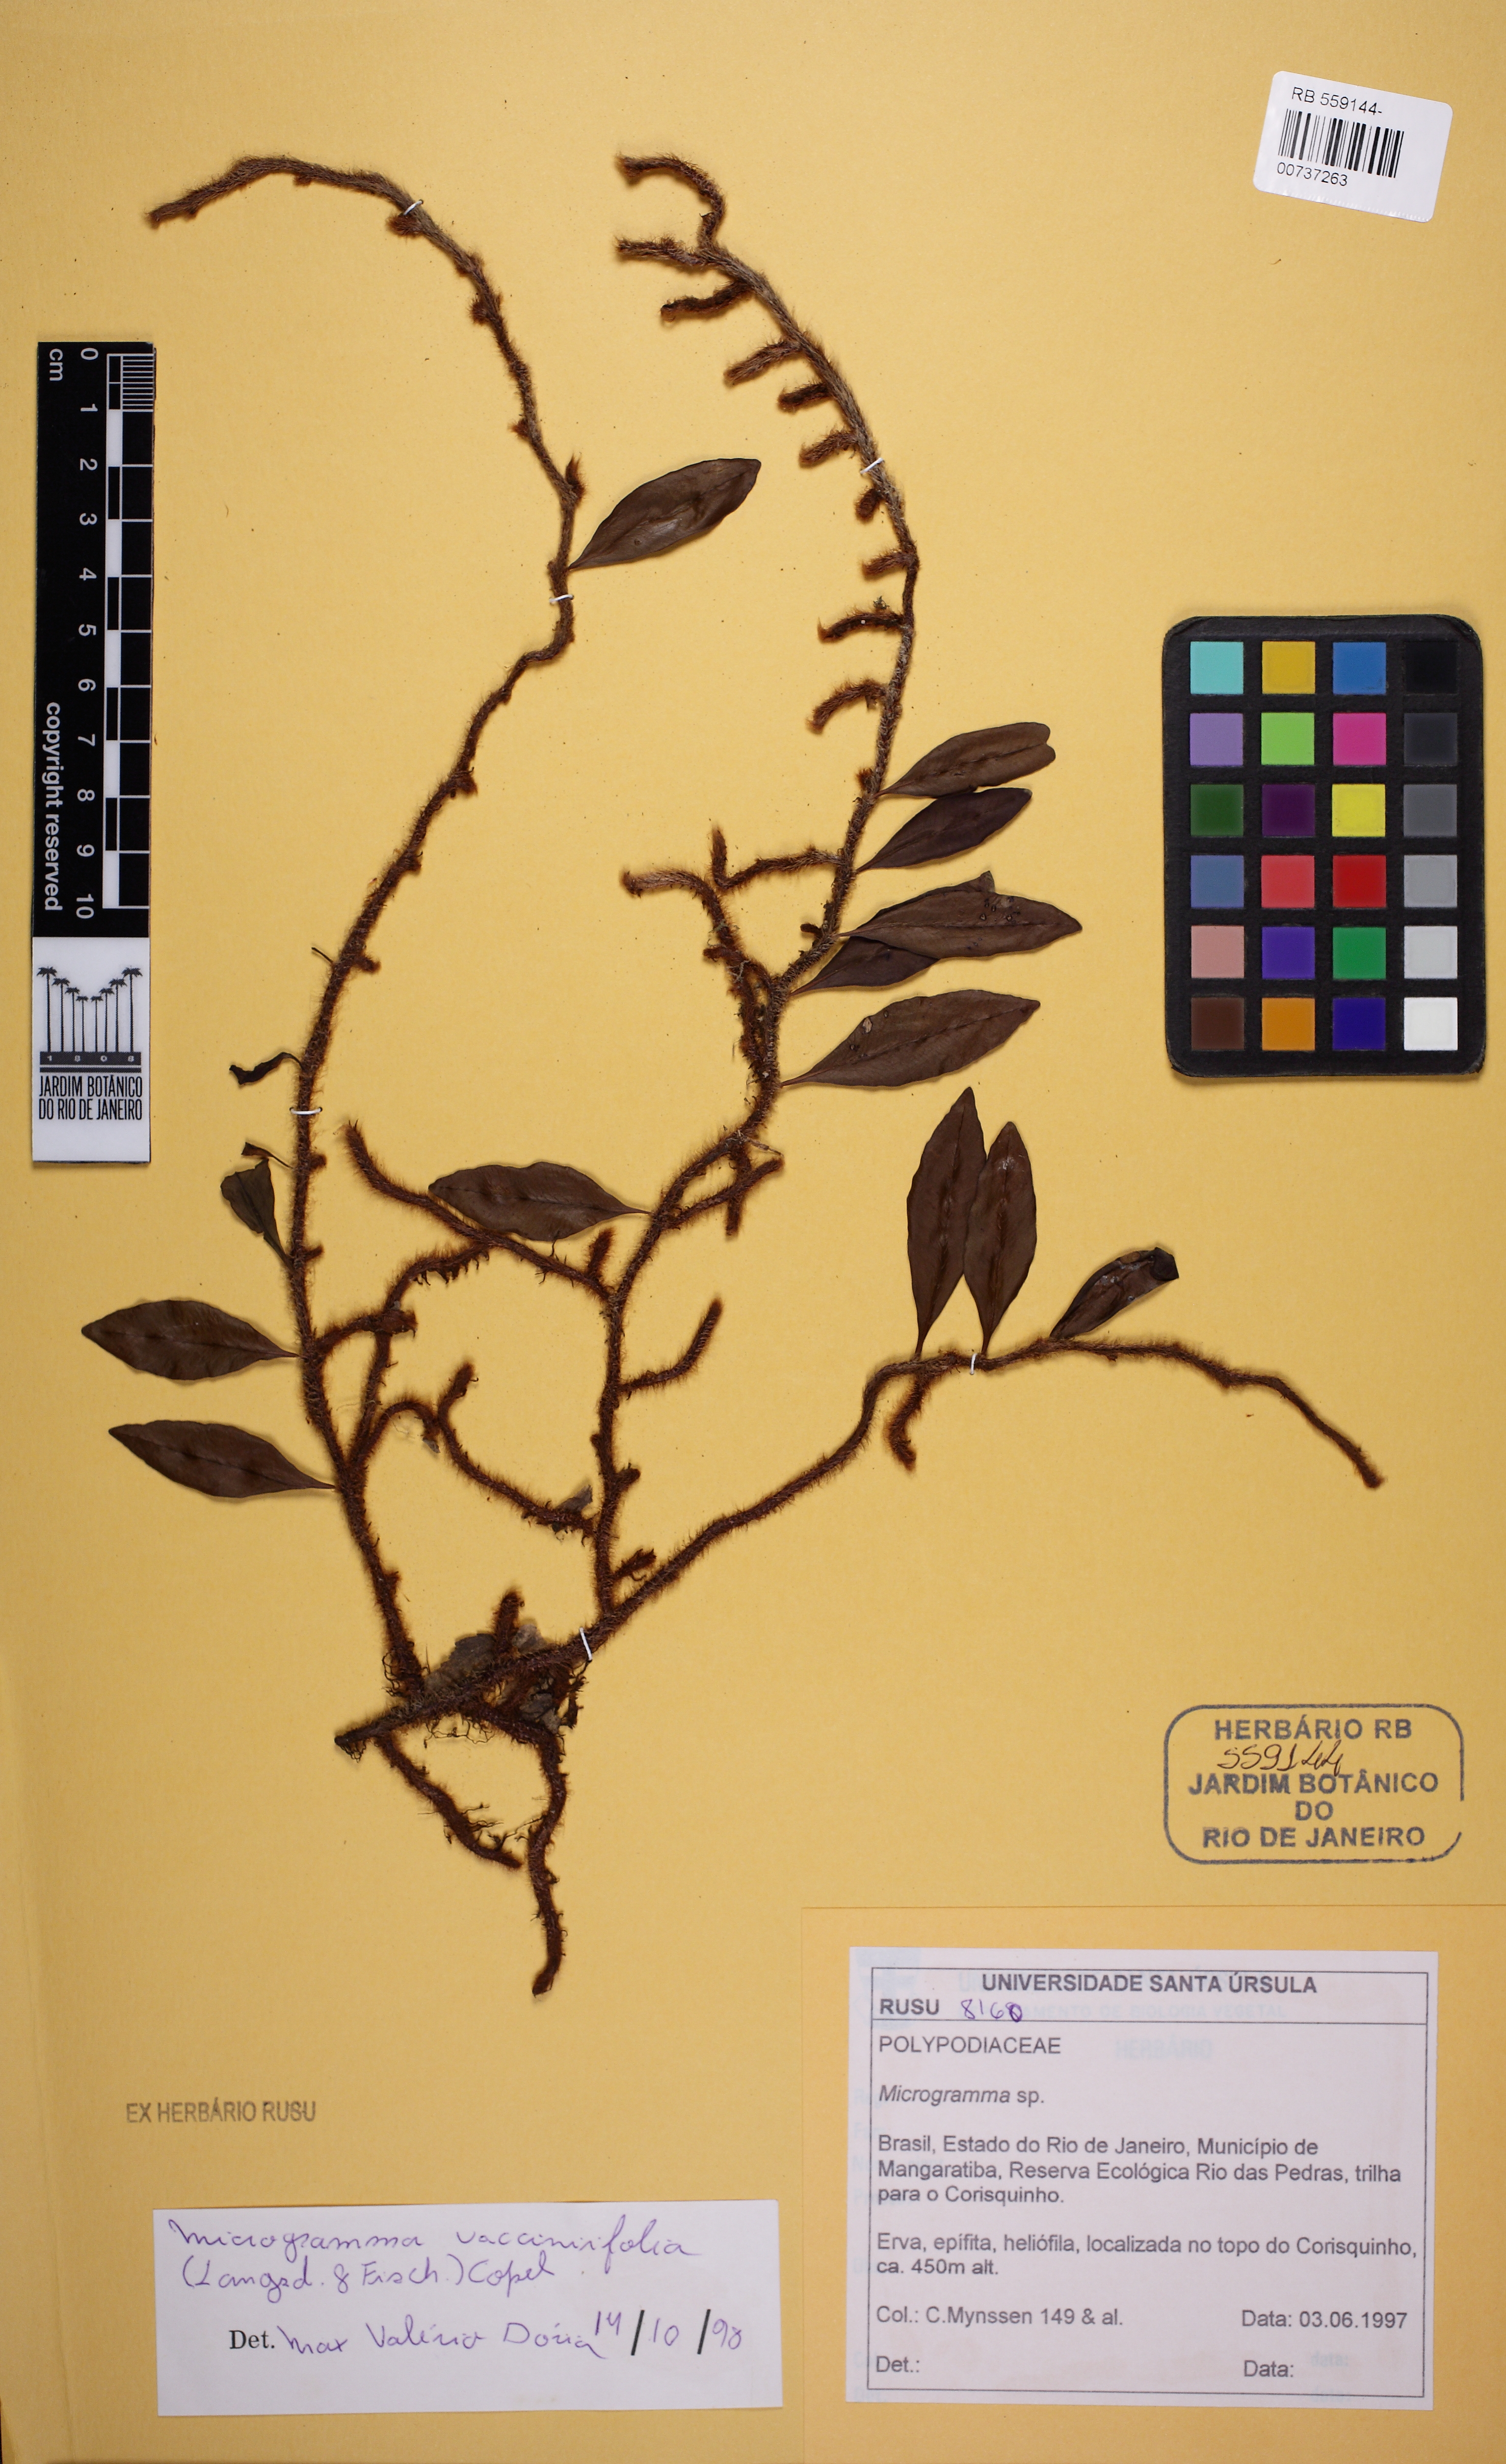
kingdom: Plantae
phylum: Tracheophyta
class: Polypodiopsida
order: Polypodiales
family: Polypodiaceae
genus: Microgramma
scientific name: Microgramma vaccinifolia
